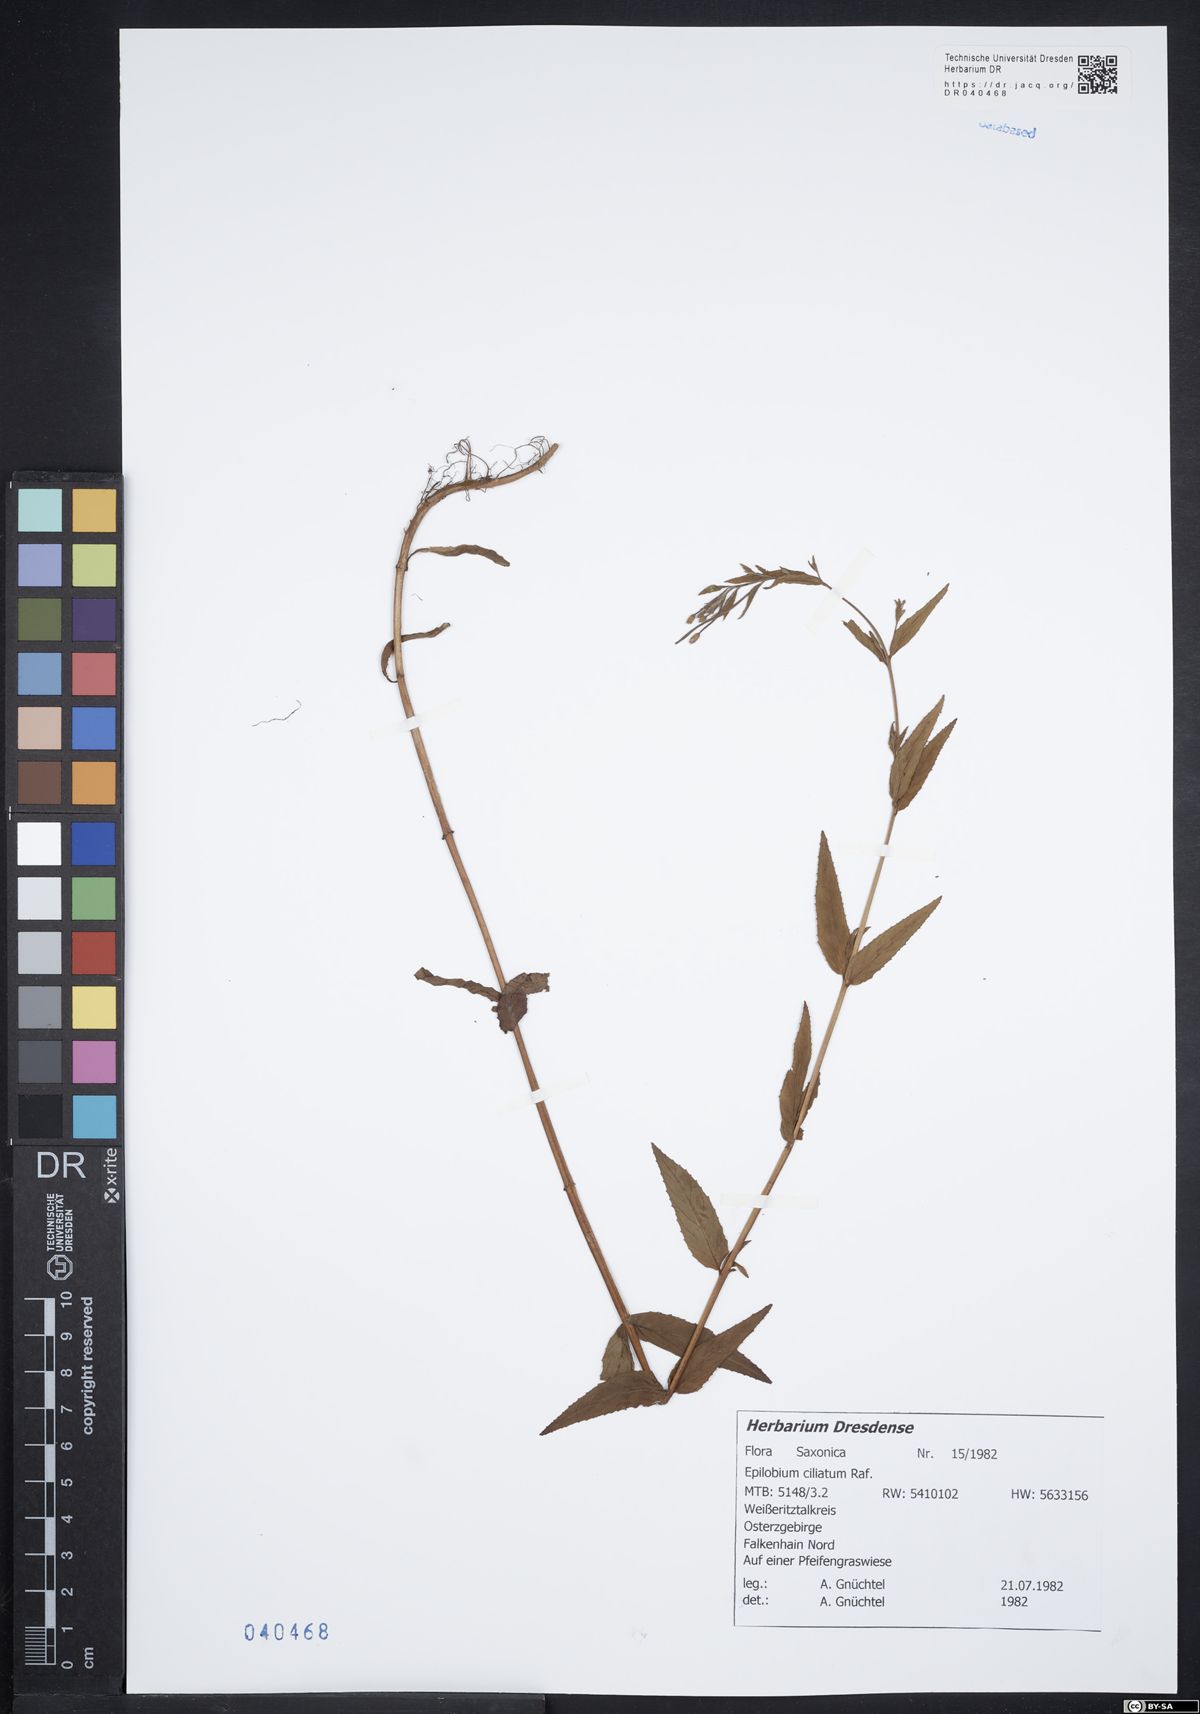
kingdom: Plantae
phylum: Tracheophyta
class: Magnoliopsida
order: Myrtales
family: Onagraceae
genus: Epilobium
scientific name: Epilobium ciliatum
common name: American willowherb
